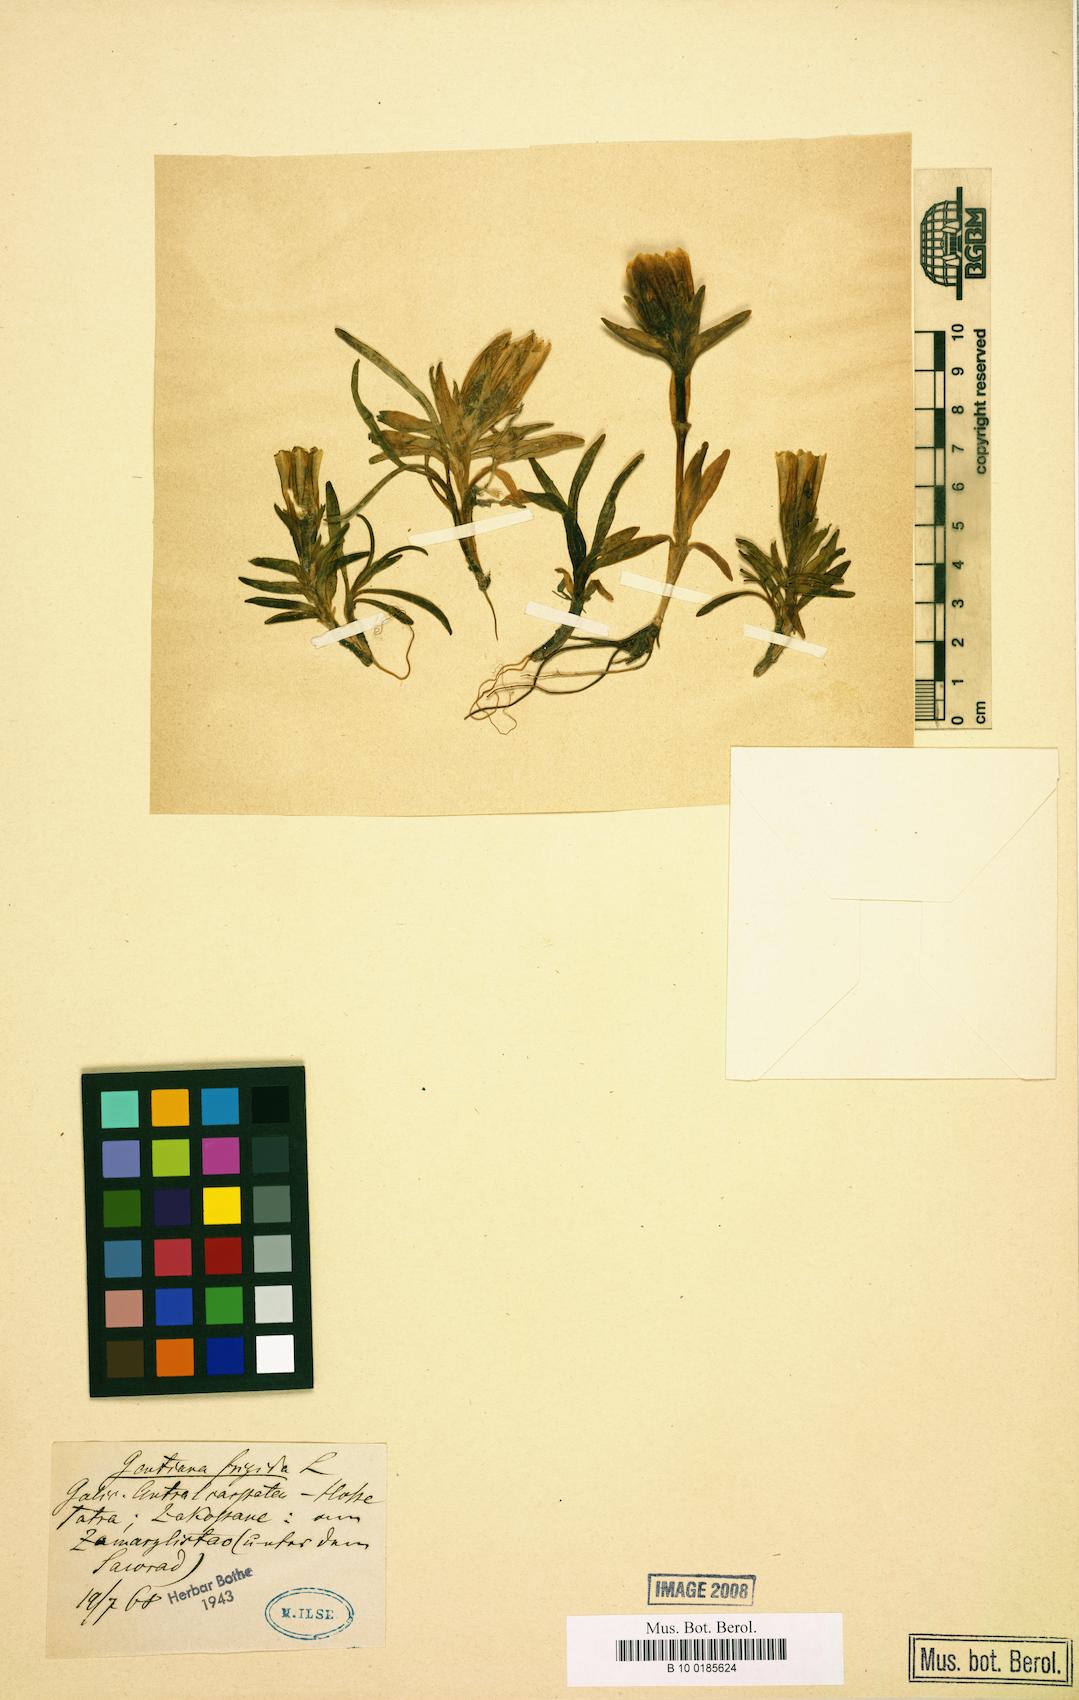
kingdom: Plantae
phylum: Tracheophyta
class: Magnoliopsida
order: Gentianales
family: Gentianaceae
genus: Gentiana
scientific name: Gentiana frigida
